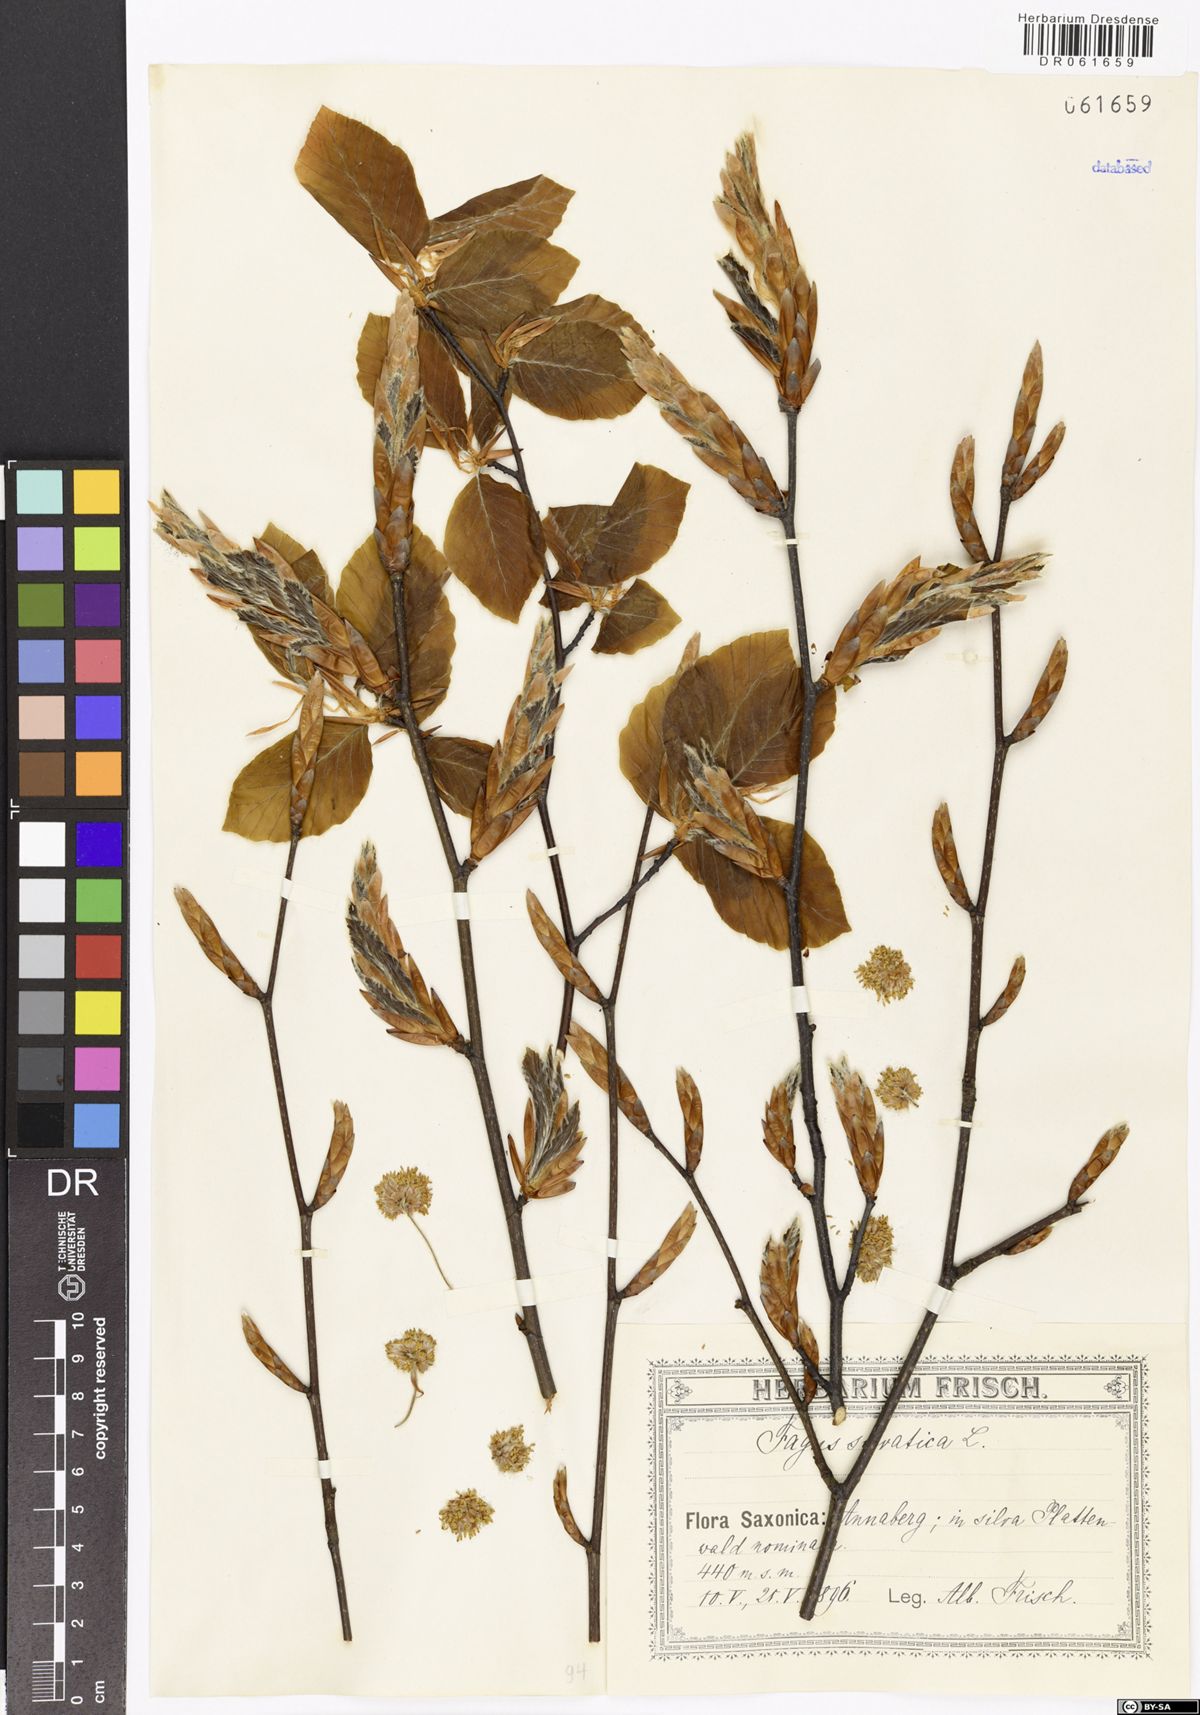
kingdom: Plantae
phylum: Tracheophyta
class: Magnoliopsida
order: Fagales
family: Fagaceae
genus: Fagus
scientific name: Fagus sylvatica
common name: Beech
